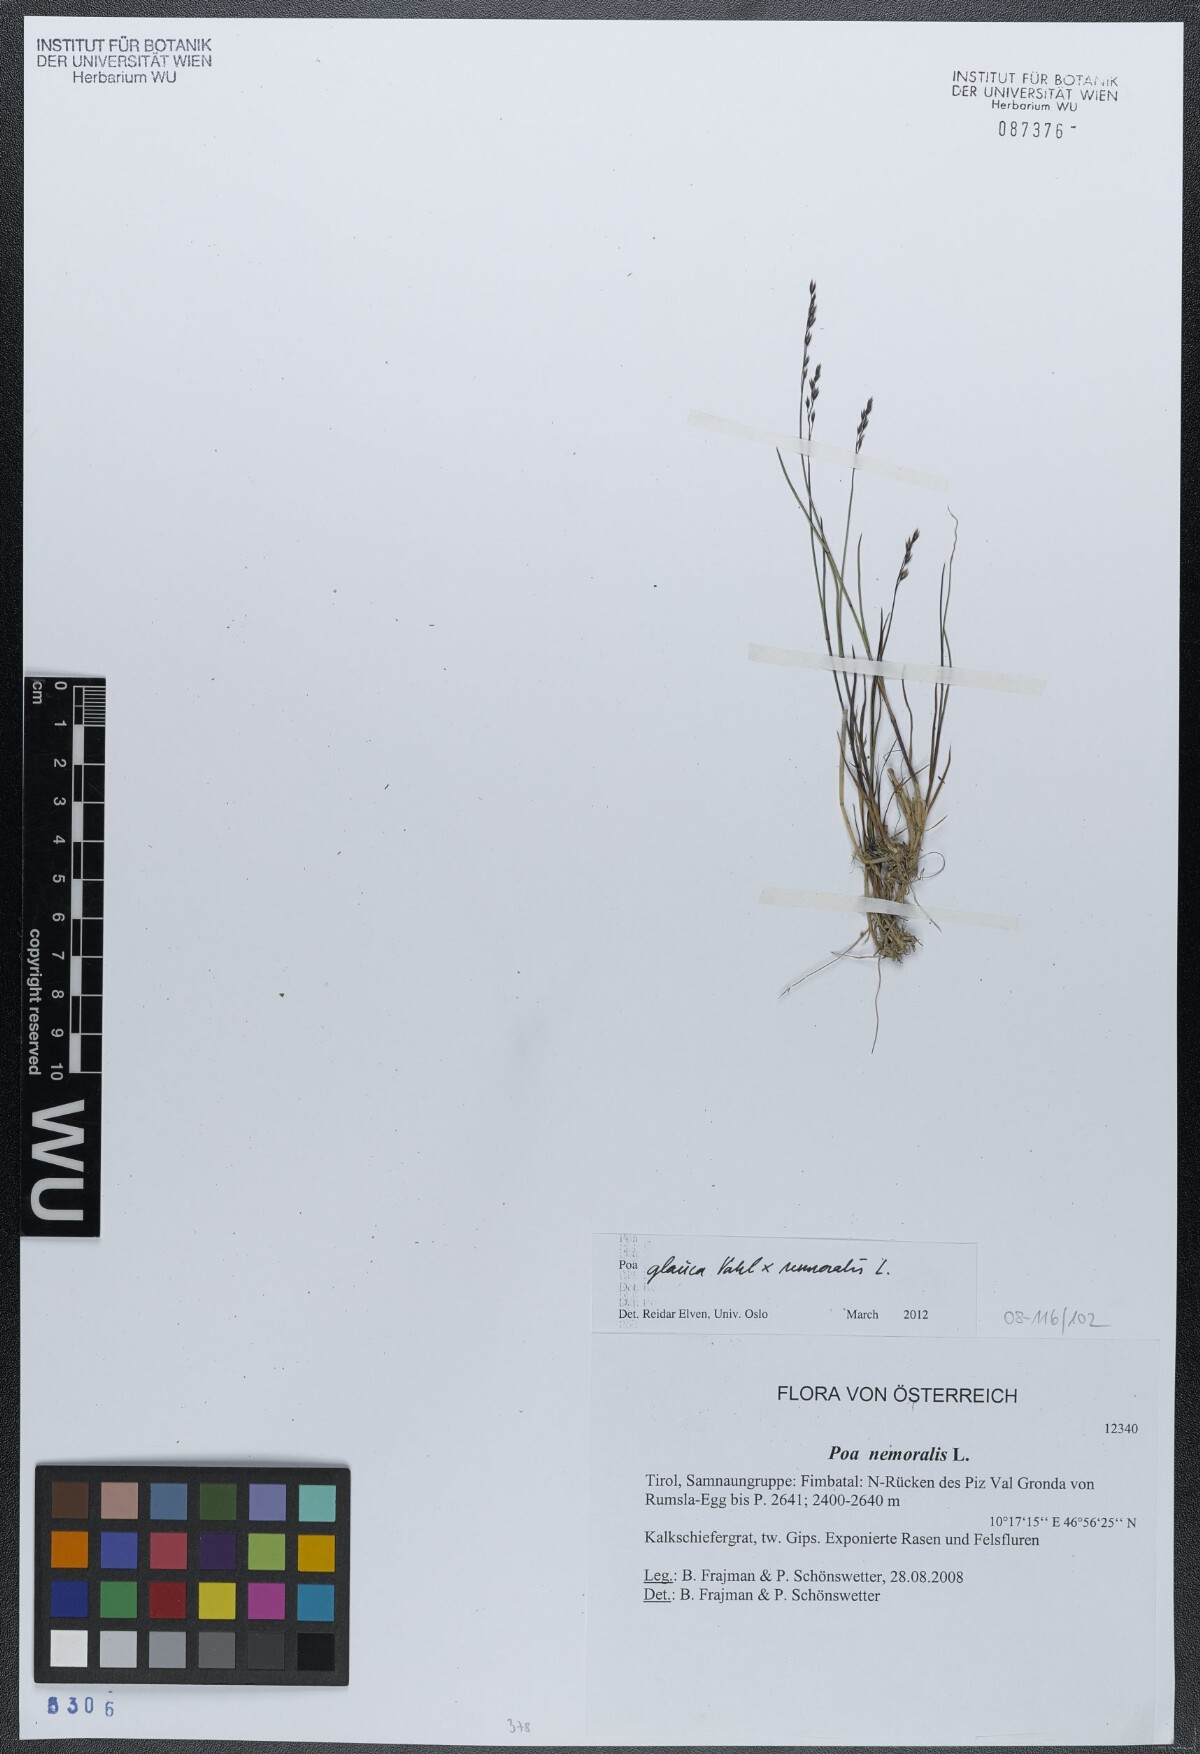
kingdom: Plantae
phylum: Tracheophyta
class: Liliopsida
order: Poales
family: Poaceae
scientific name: Poaceae
